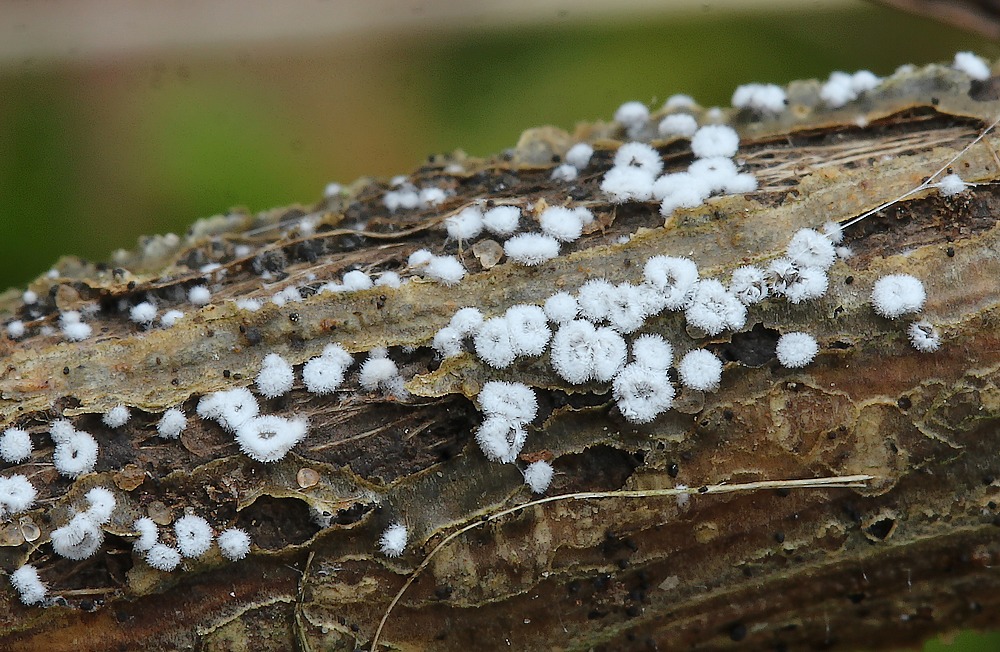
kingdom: Fungi
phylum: Basidiomycota
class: Agaricomycetes
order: Agaricales
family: Niaceae
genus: Lachnella
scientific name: Lachnella alboviolascens
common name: grå frynserede
